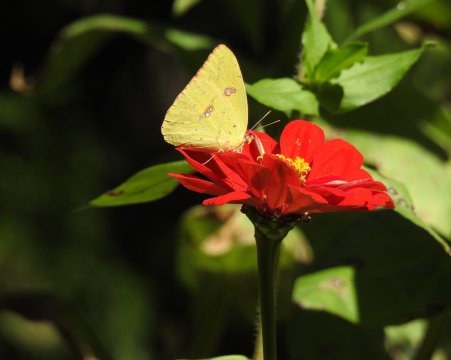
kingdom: Animalia
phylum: Arthropoda
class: Insecta
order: Lepidoptera
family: Pieridae
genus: Phoebis
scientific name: Phoebis sennae
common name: Cloudless Sulphur
